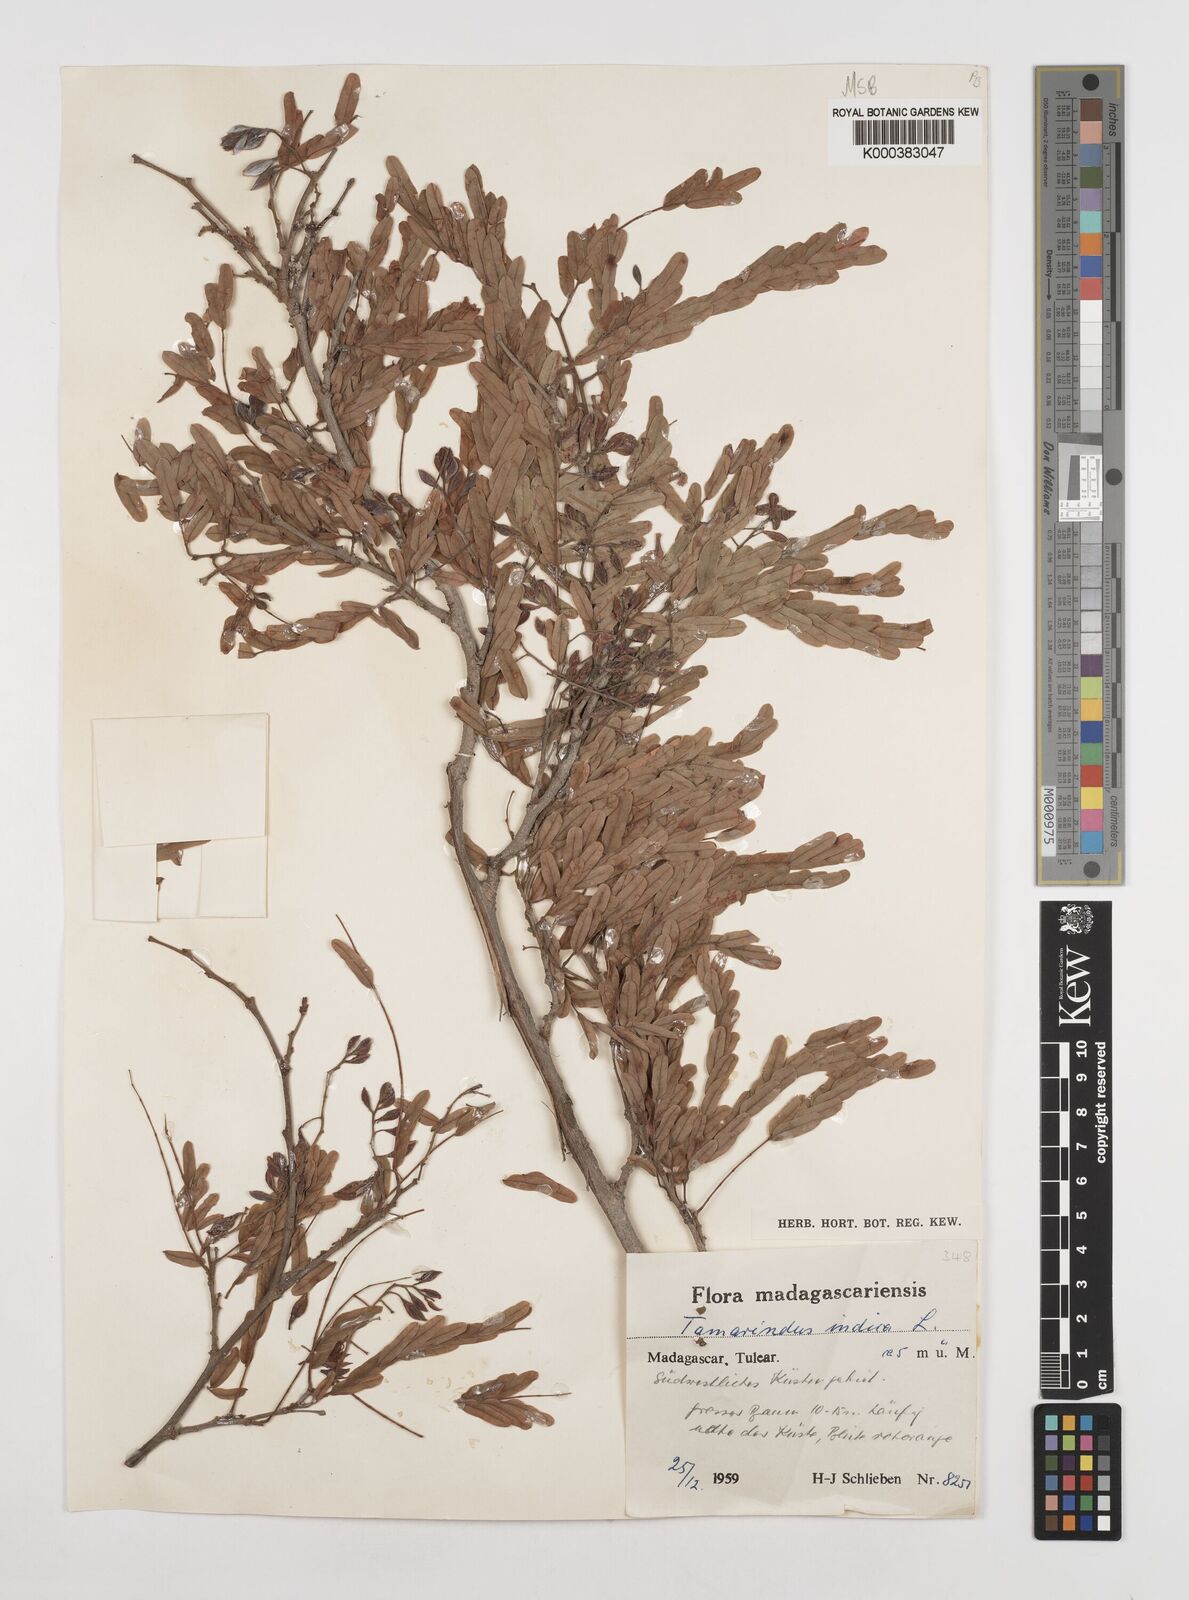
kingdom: Plantae
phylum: Tracheophyta
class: Magnoliopsida
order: Fabales
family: Fabaceae
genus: Tamarindus
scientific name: Tamarindus indica
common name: Tamarind
